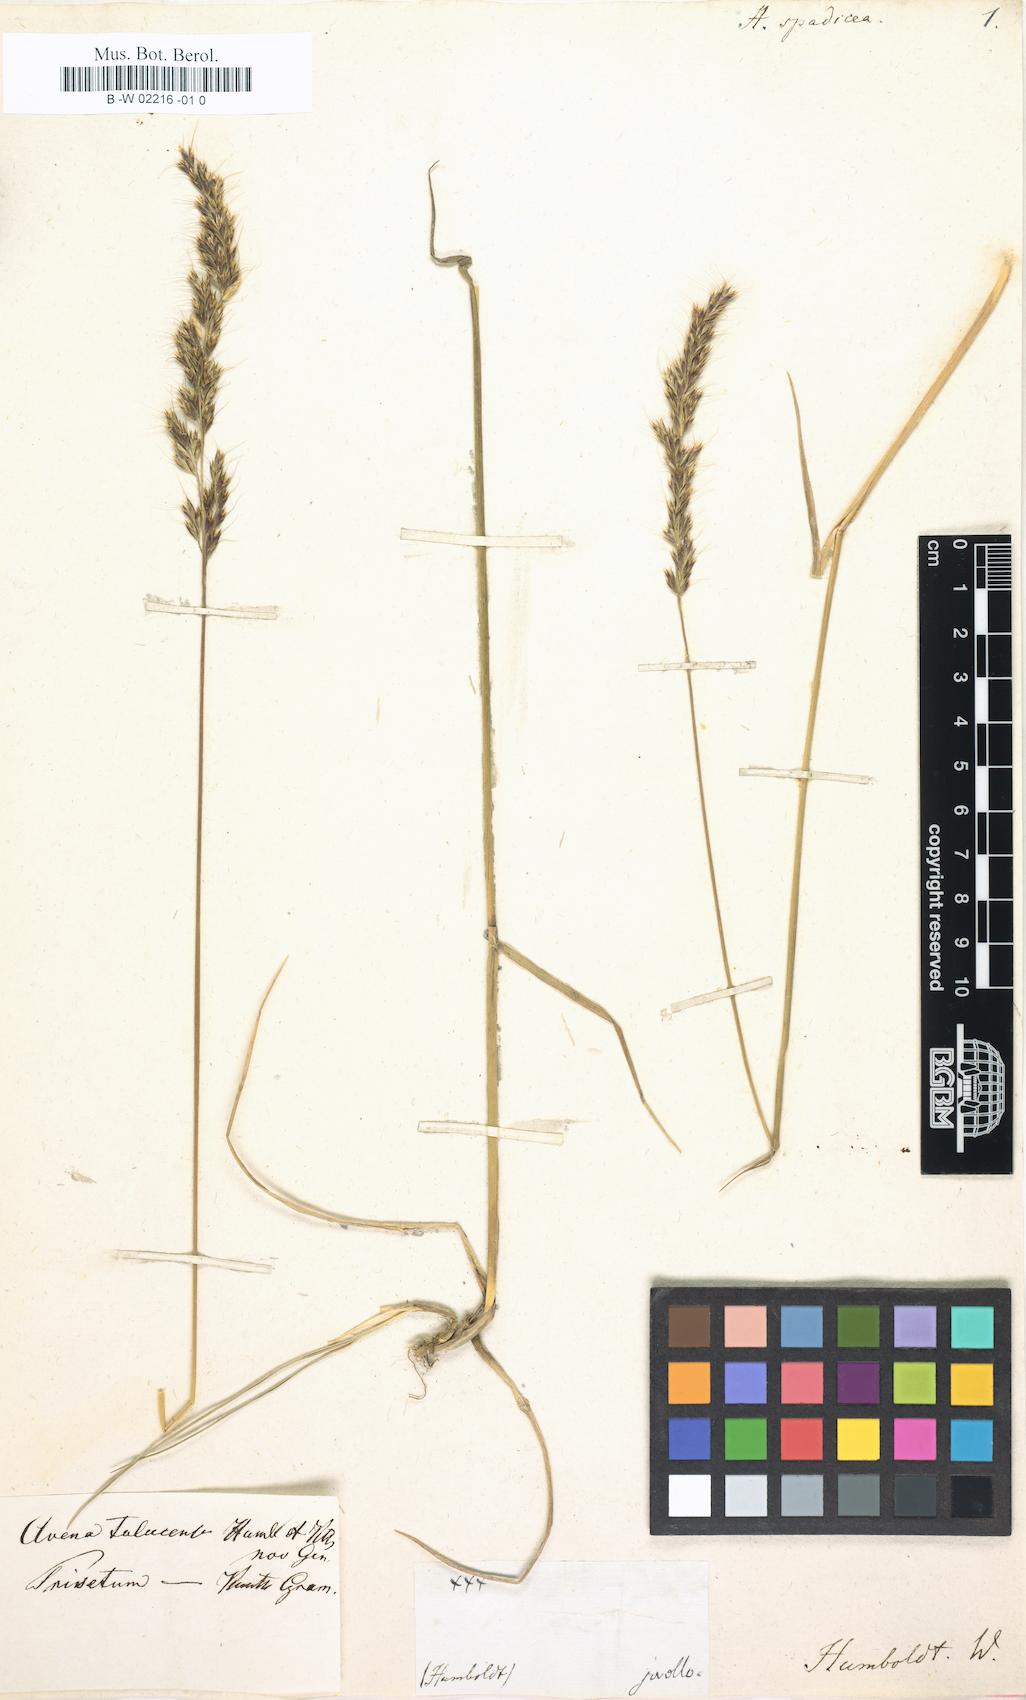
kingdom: Plantae
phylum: Tracheophyta
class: Liliopsida
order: Poales
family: Poaceae
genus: Avena
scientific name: Avena
